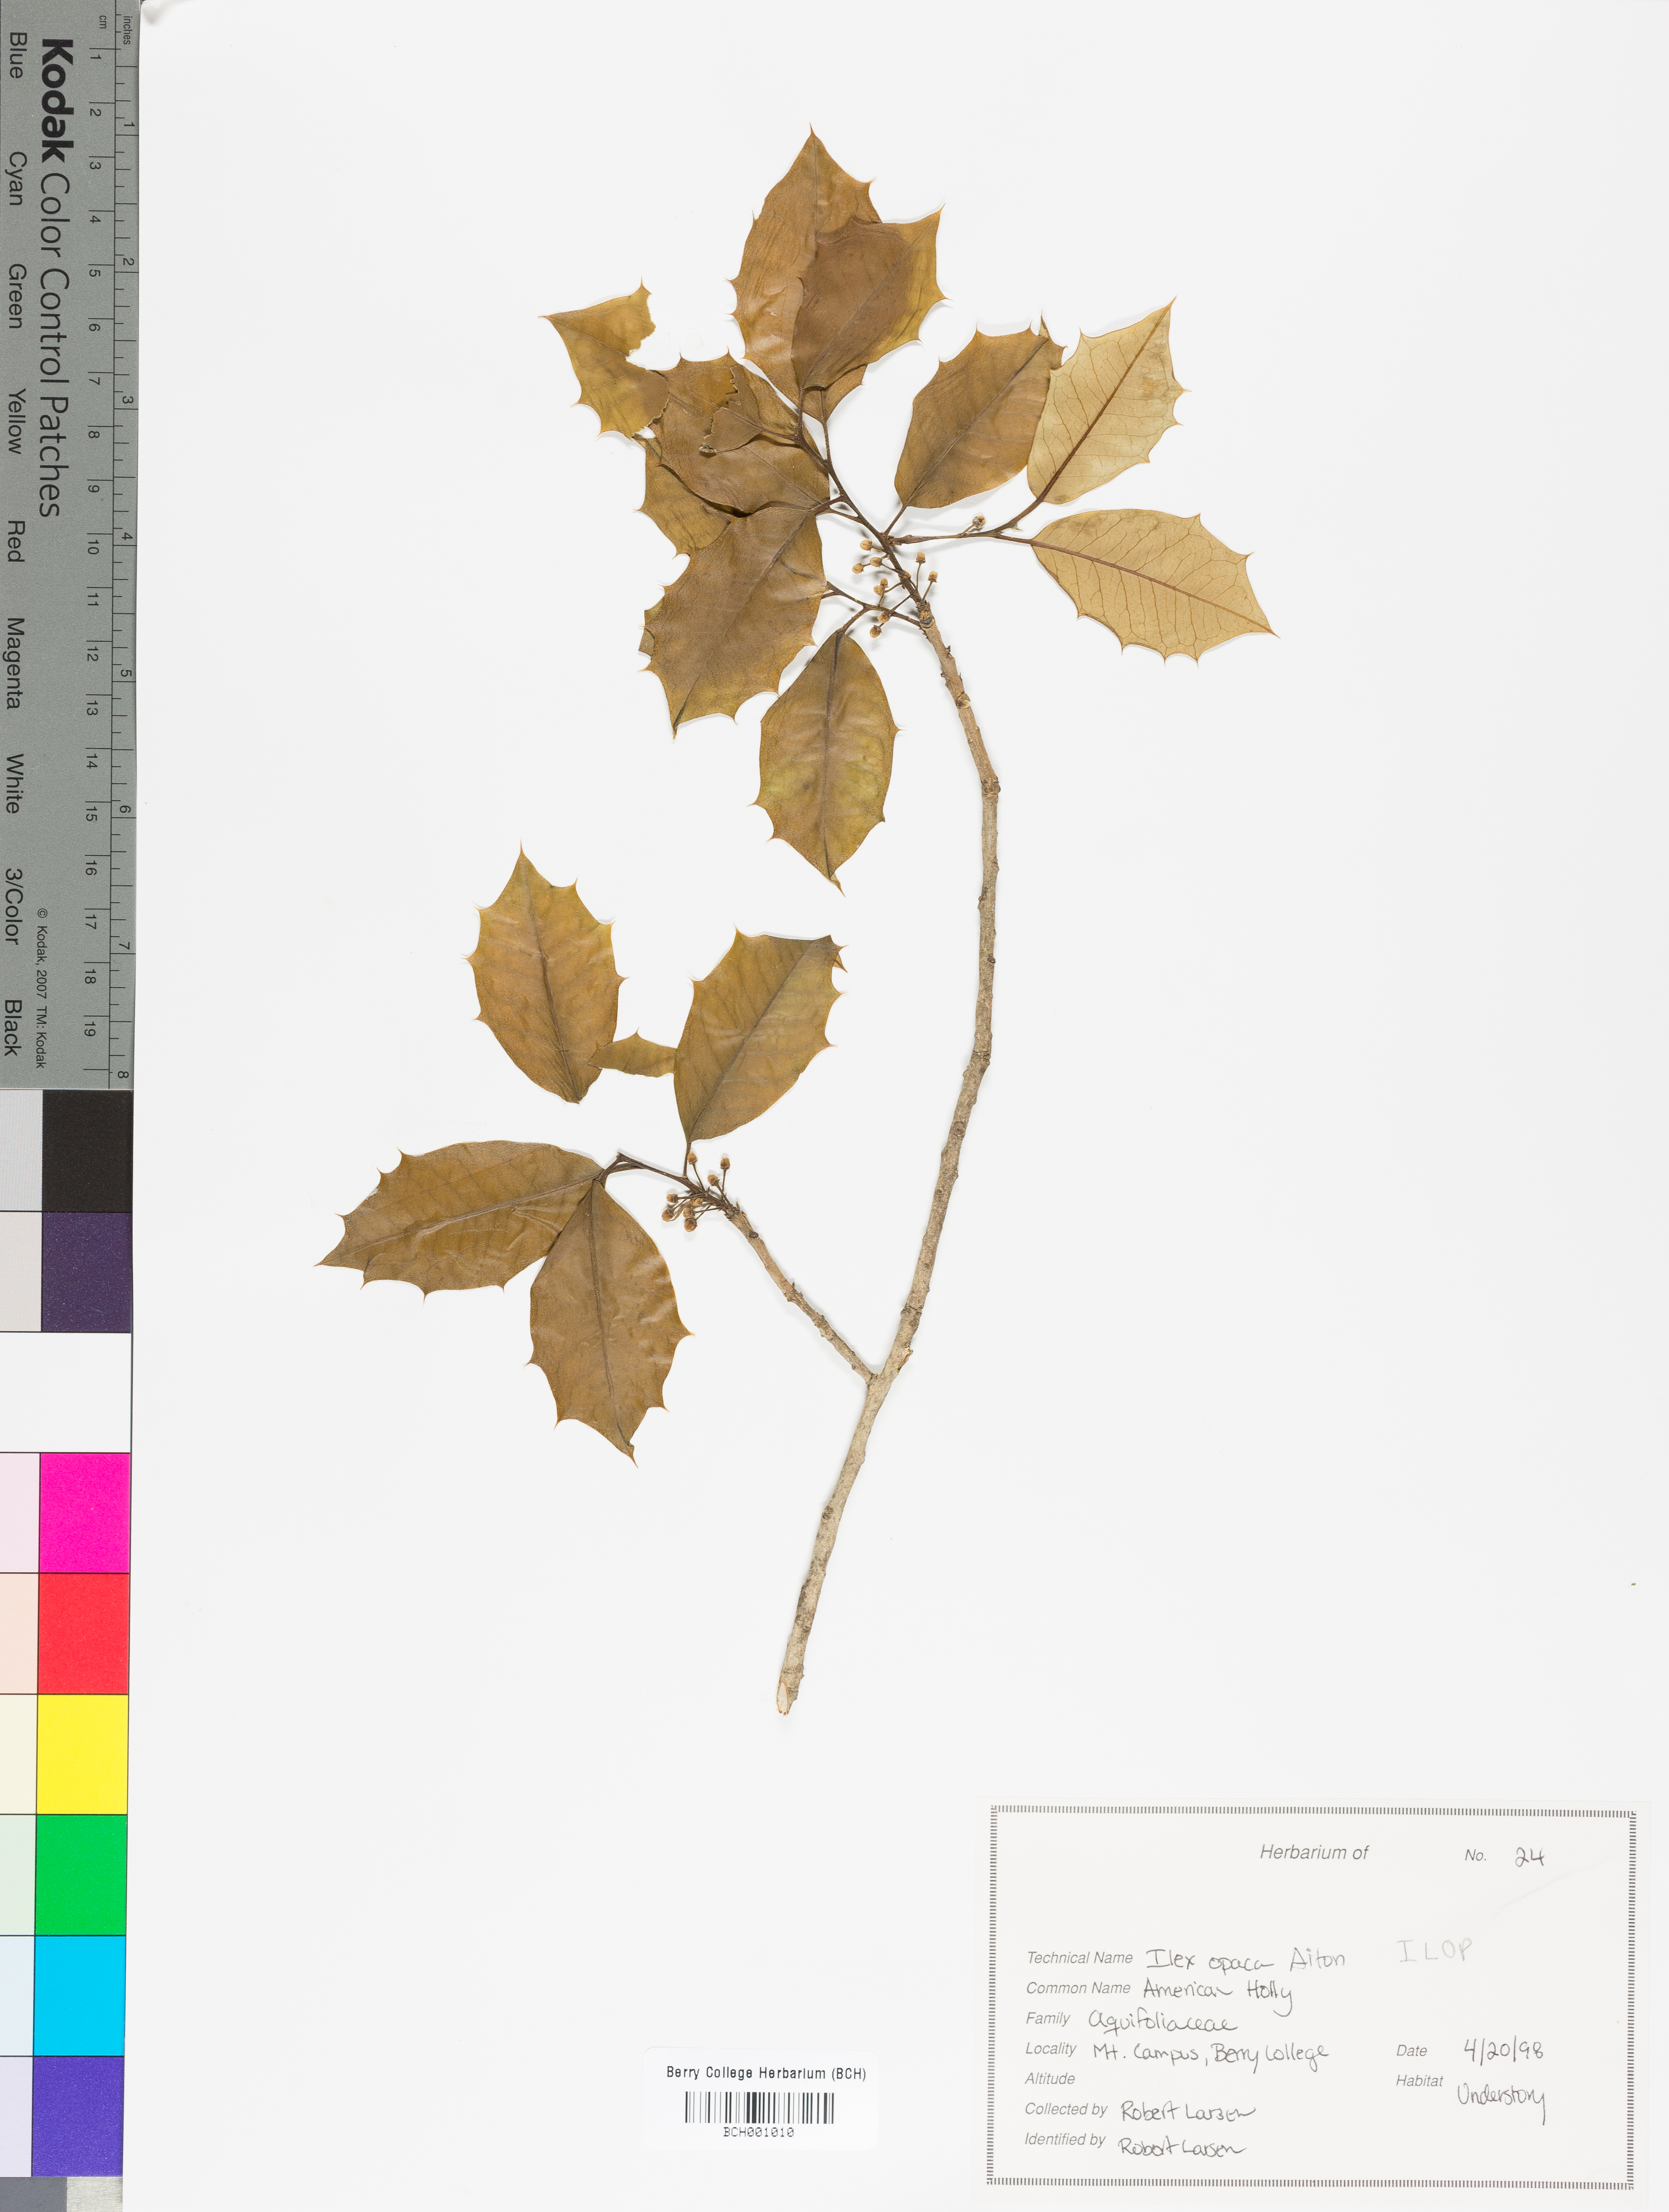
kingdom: Plantae
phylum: Tracheophyta
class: Magnoliopsida
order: Aquifoliales
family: Aquifoliaceae
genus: Ilex
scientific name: Ilex opaca
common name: American holly
